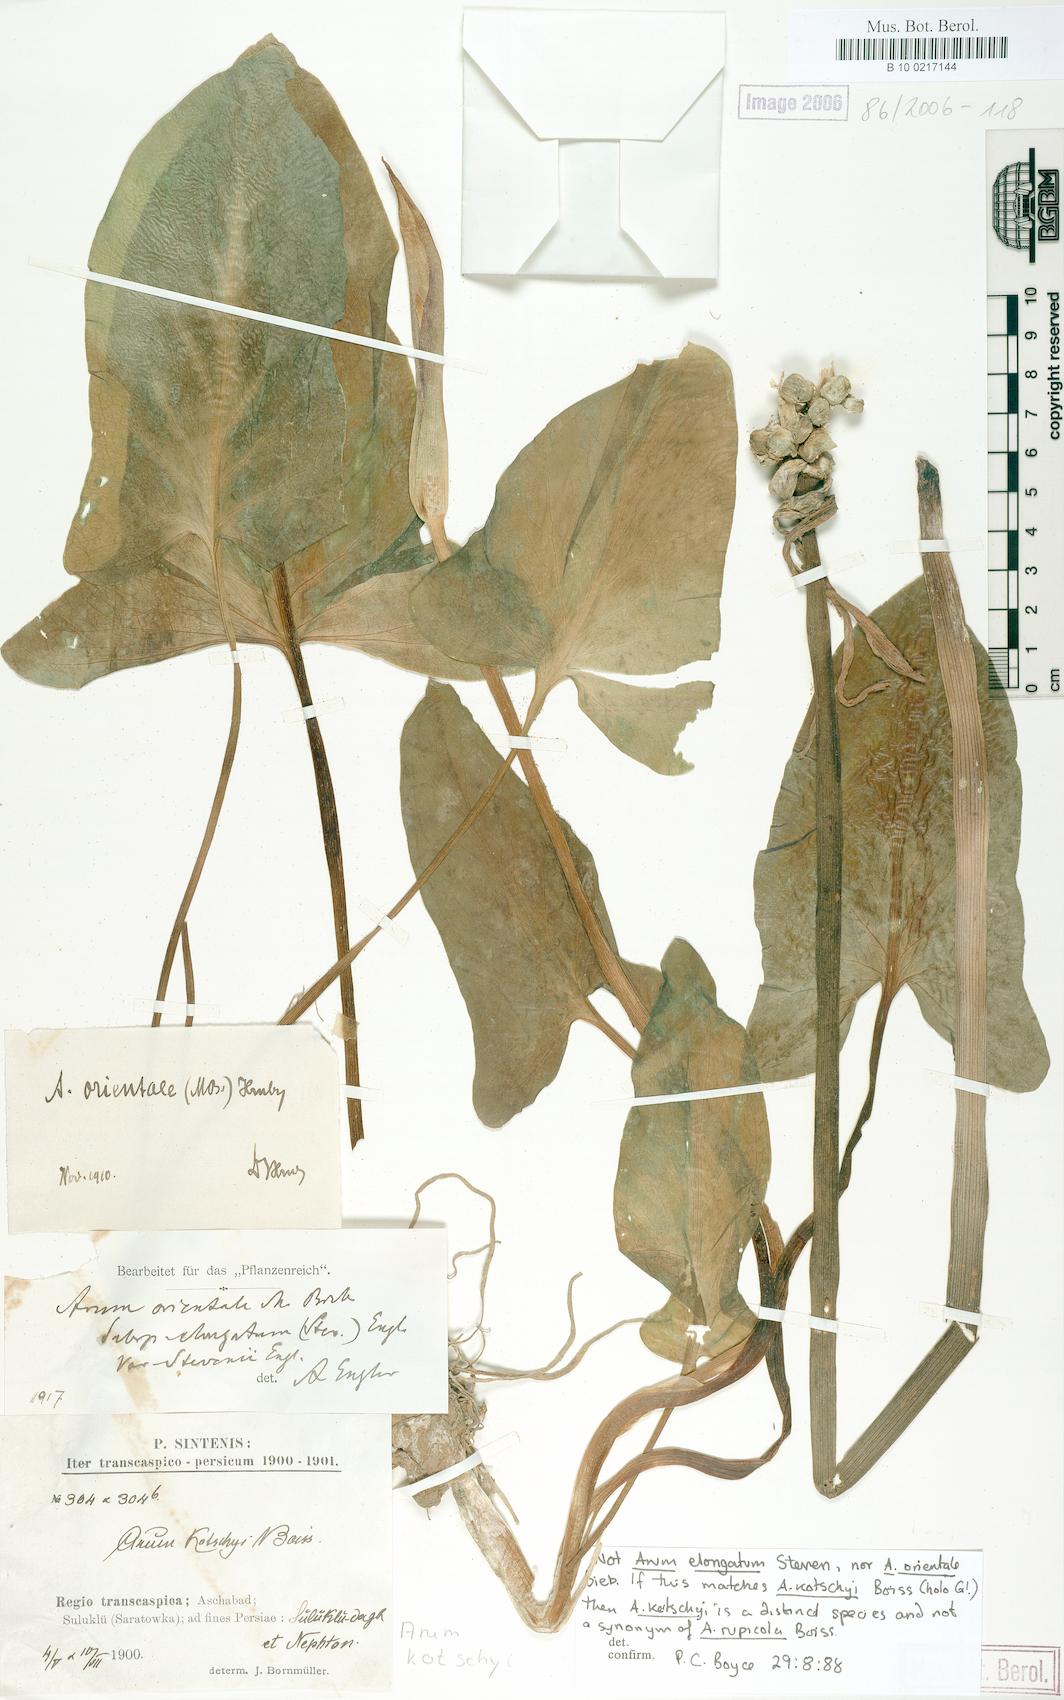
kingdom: Plantae
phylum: Tracheophyta
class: Liliopsida
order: Alismatales
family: Araceae
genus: Arum
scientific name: Arum rupicola
